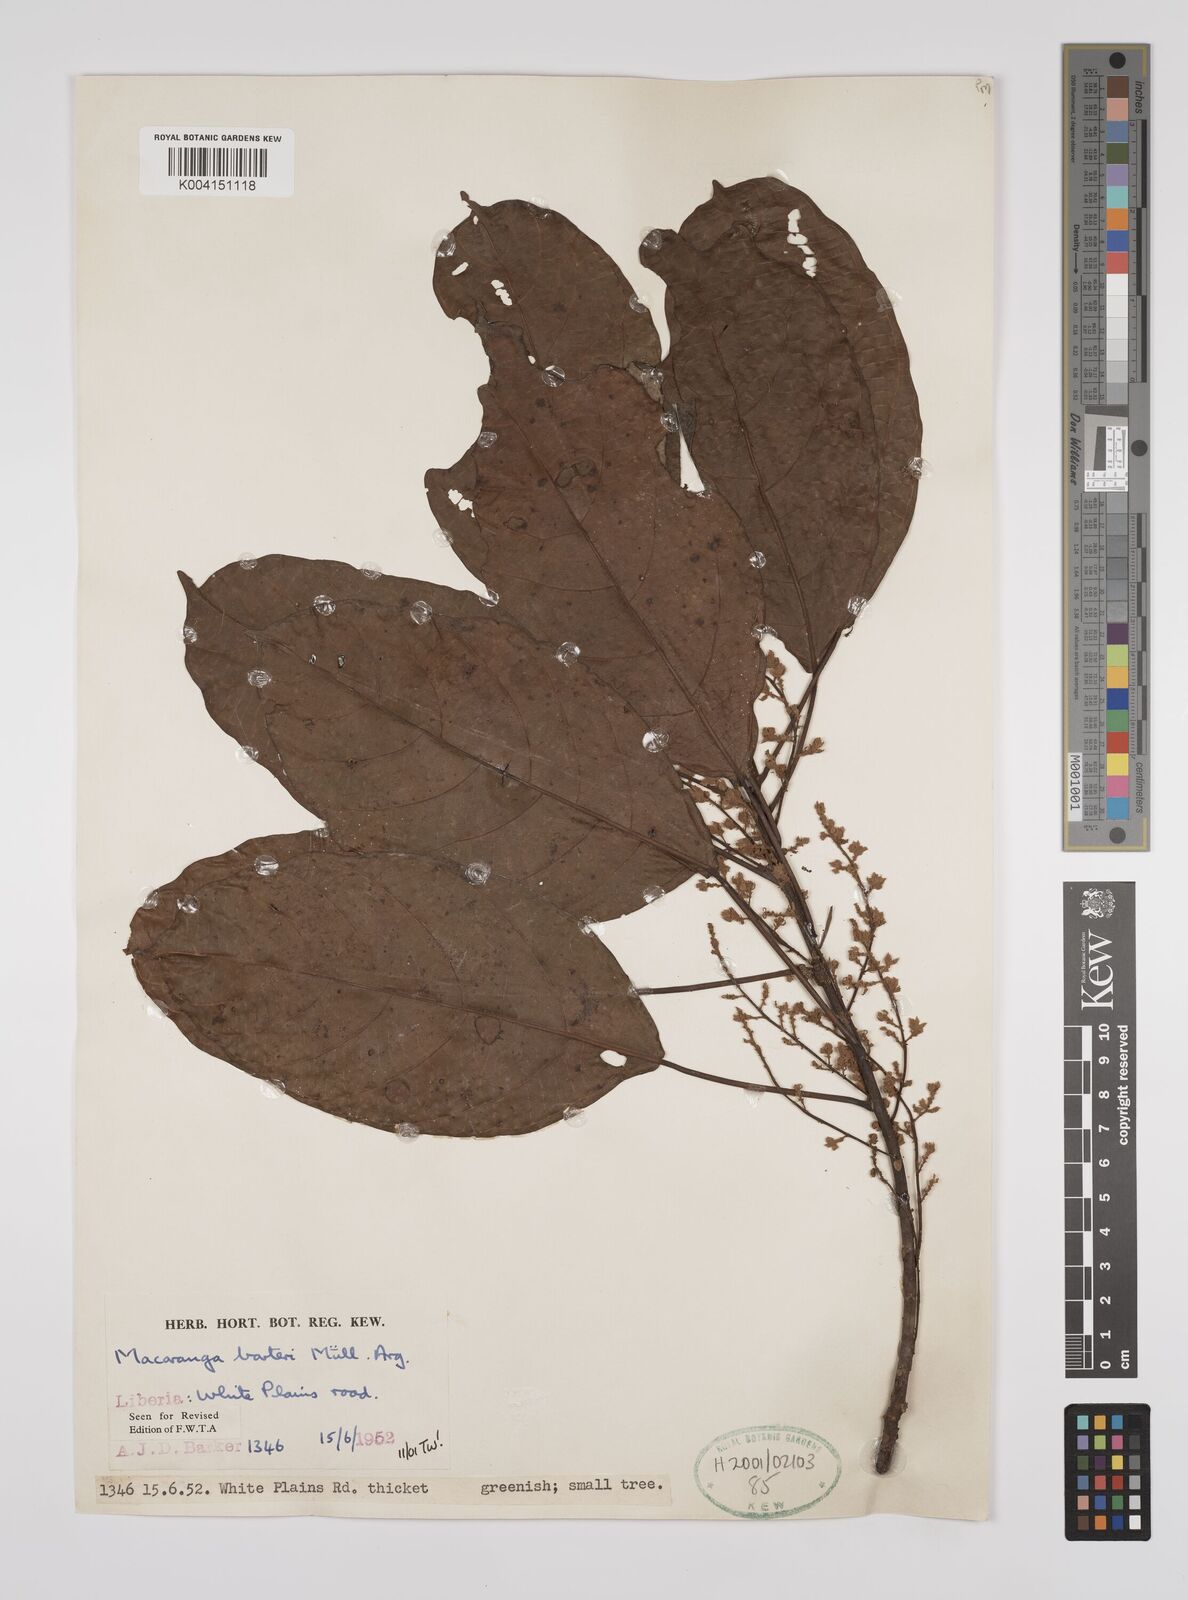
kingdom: Plantae
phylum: Tracheophyta
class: Magnoliopsida
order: Malpighiales
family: Euphorbiaceae
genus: Macaranga
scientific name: Macaranga barteri
